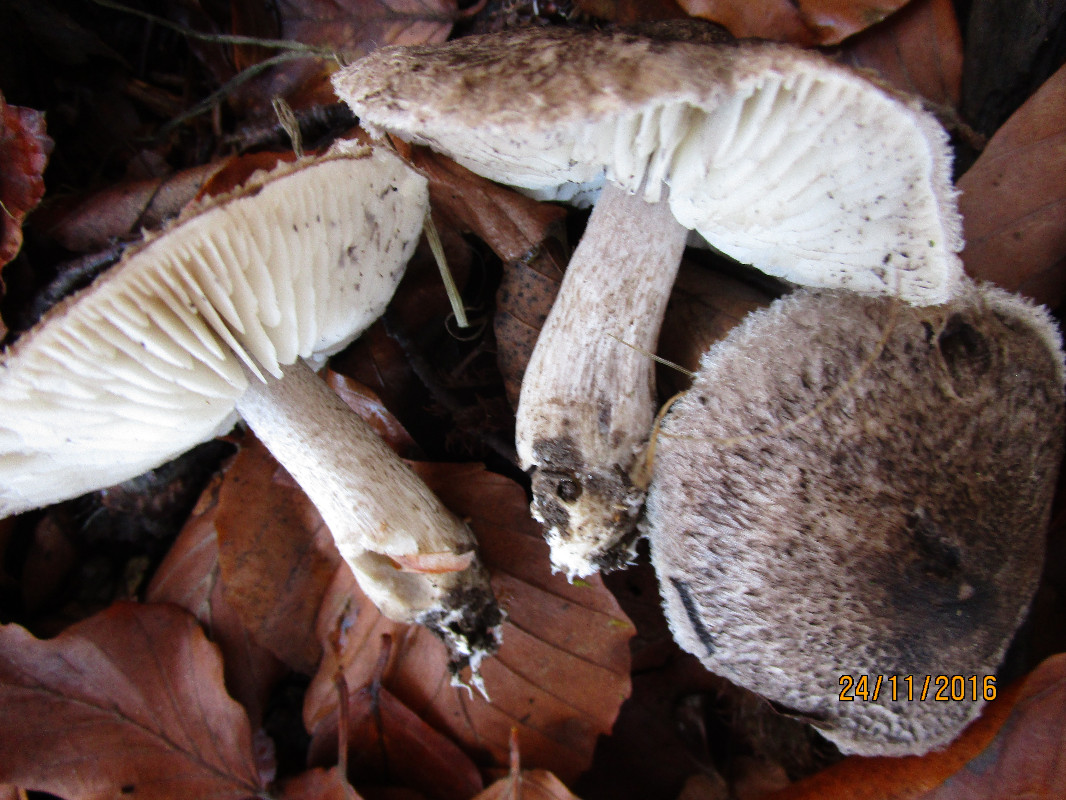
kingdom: Fungi
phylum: Basidiomycota
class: Agaricomycetes
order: Agaricales
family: Tricholomataceae
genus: Tricholoma
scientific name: Tricholoma atrosquamosum
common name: sortskællet ridderhat
